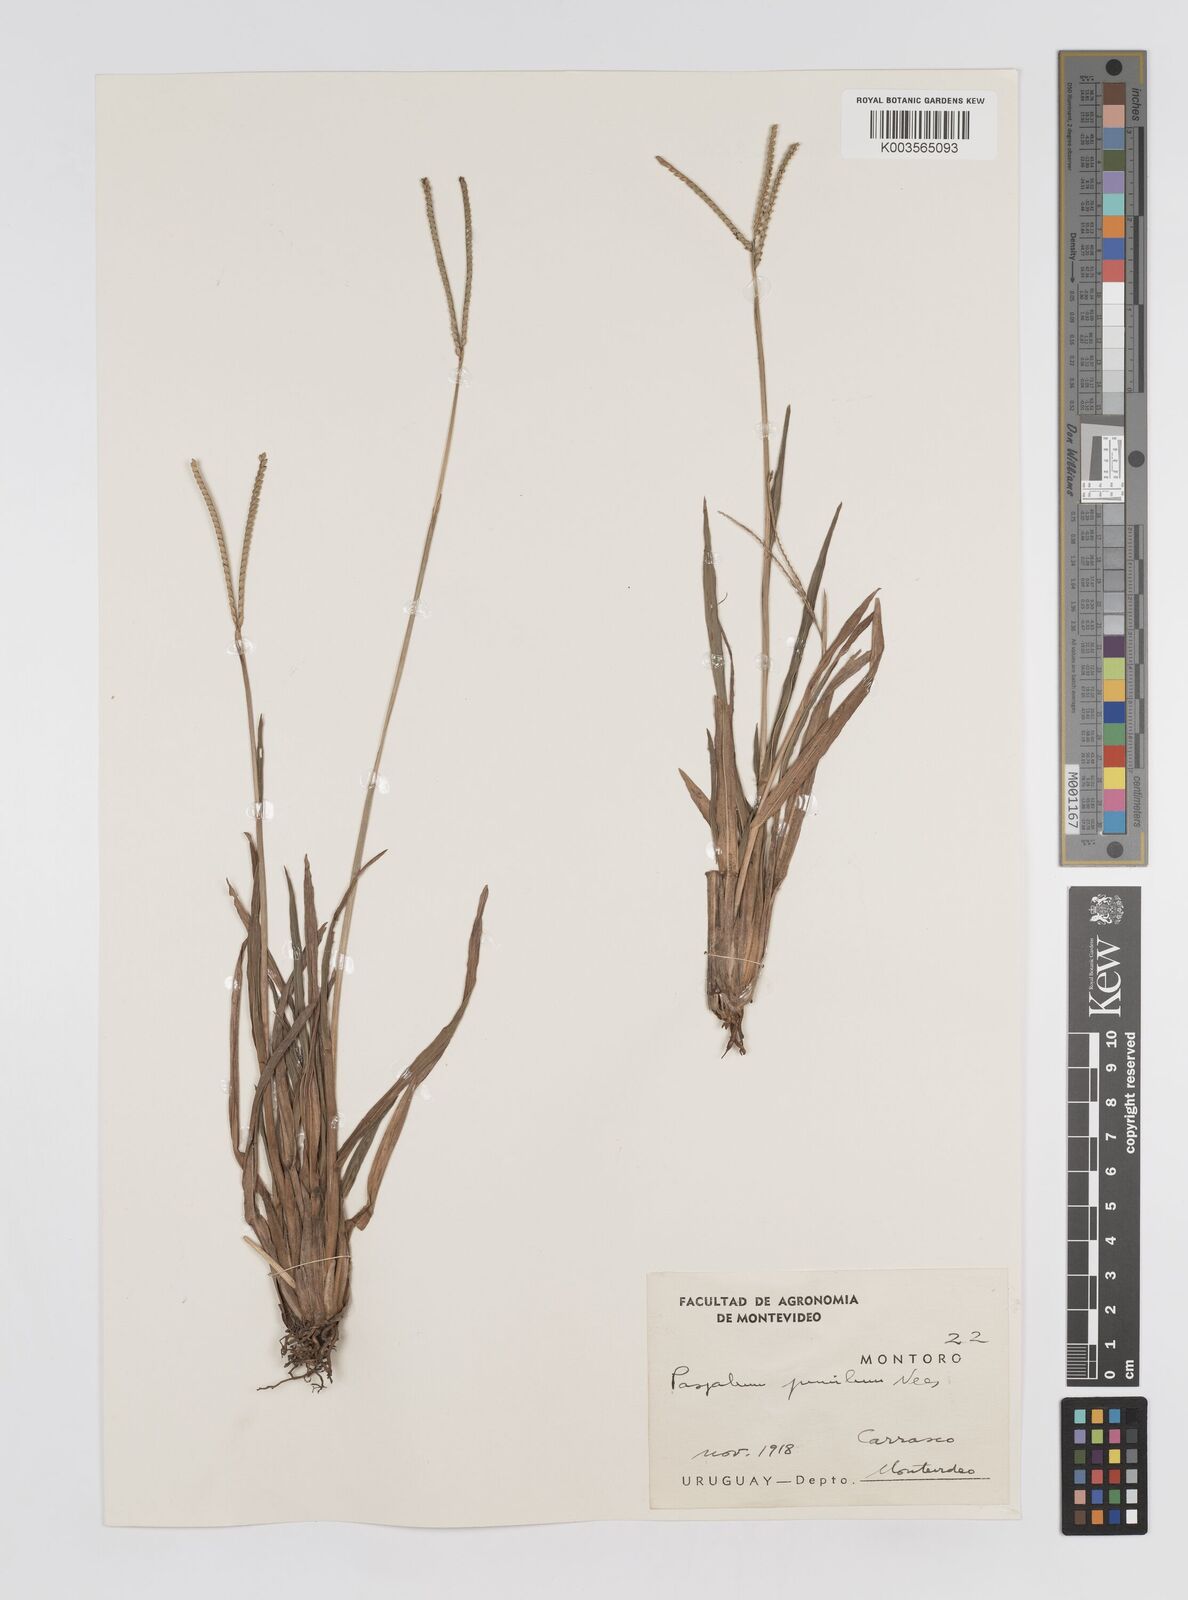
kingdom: Plantae
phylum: Tracheophyta
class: Liliopsida
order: Poales
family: Poaceae
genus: Paspalum
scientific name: Paspalum clavuliferum
